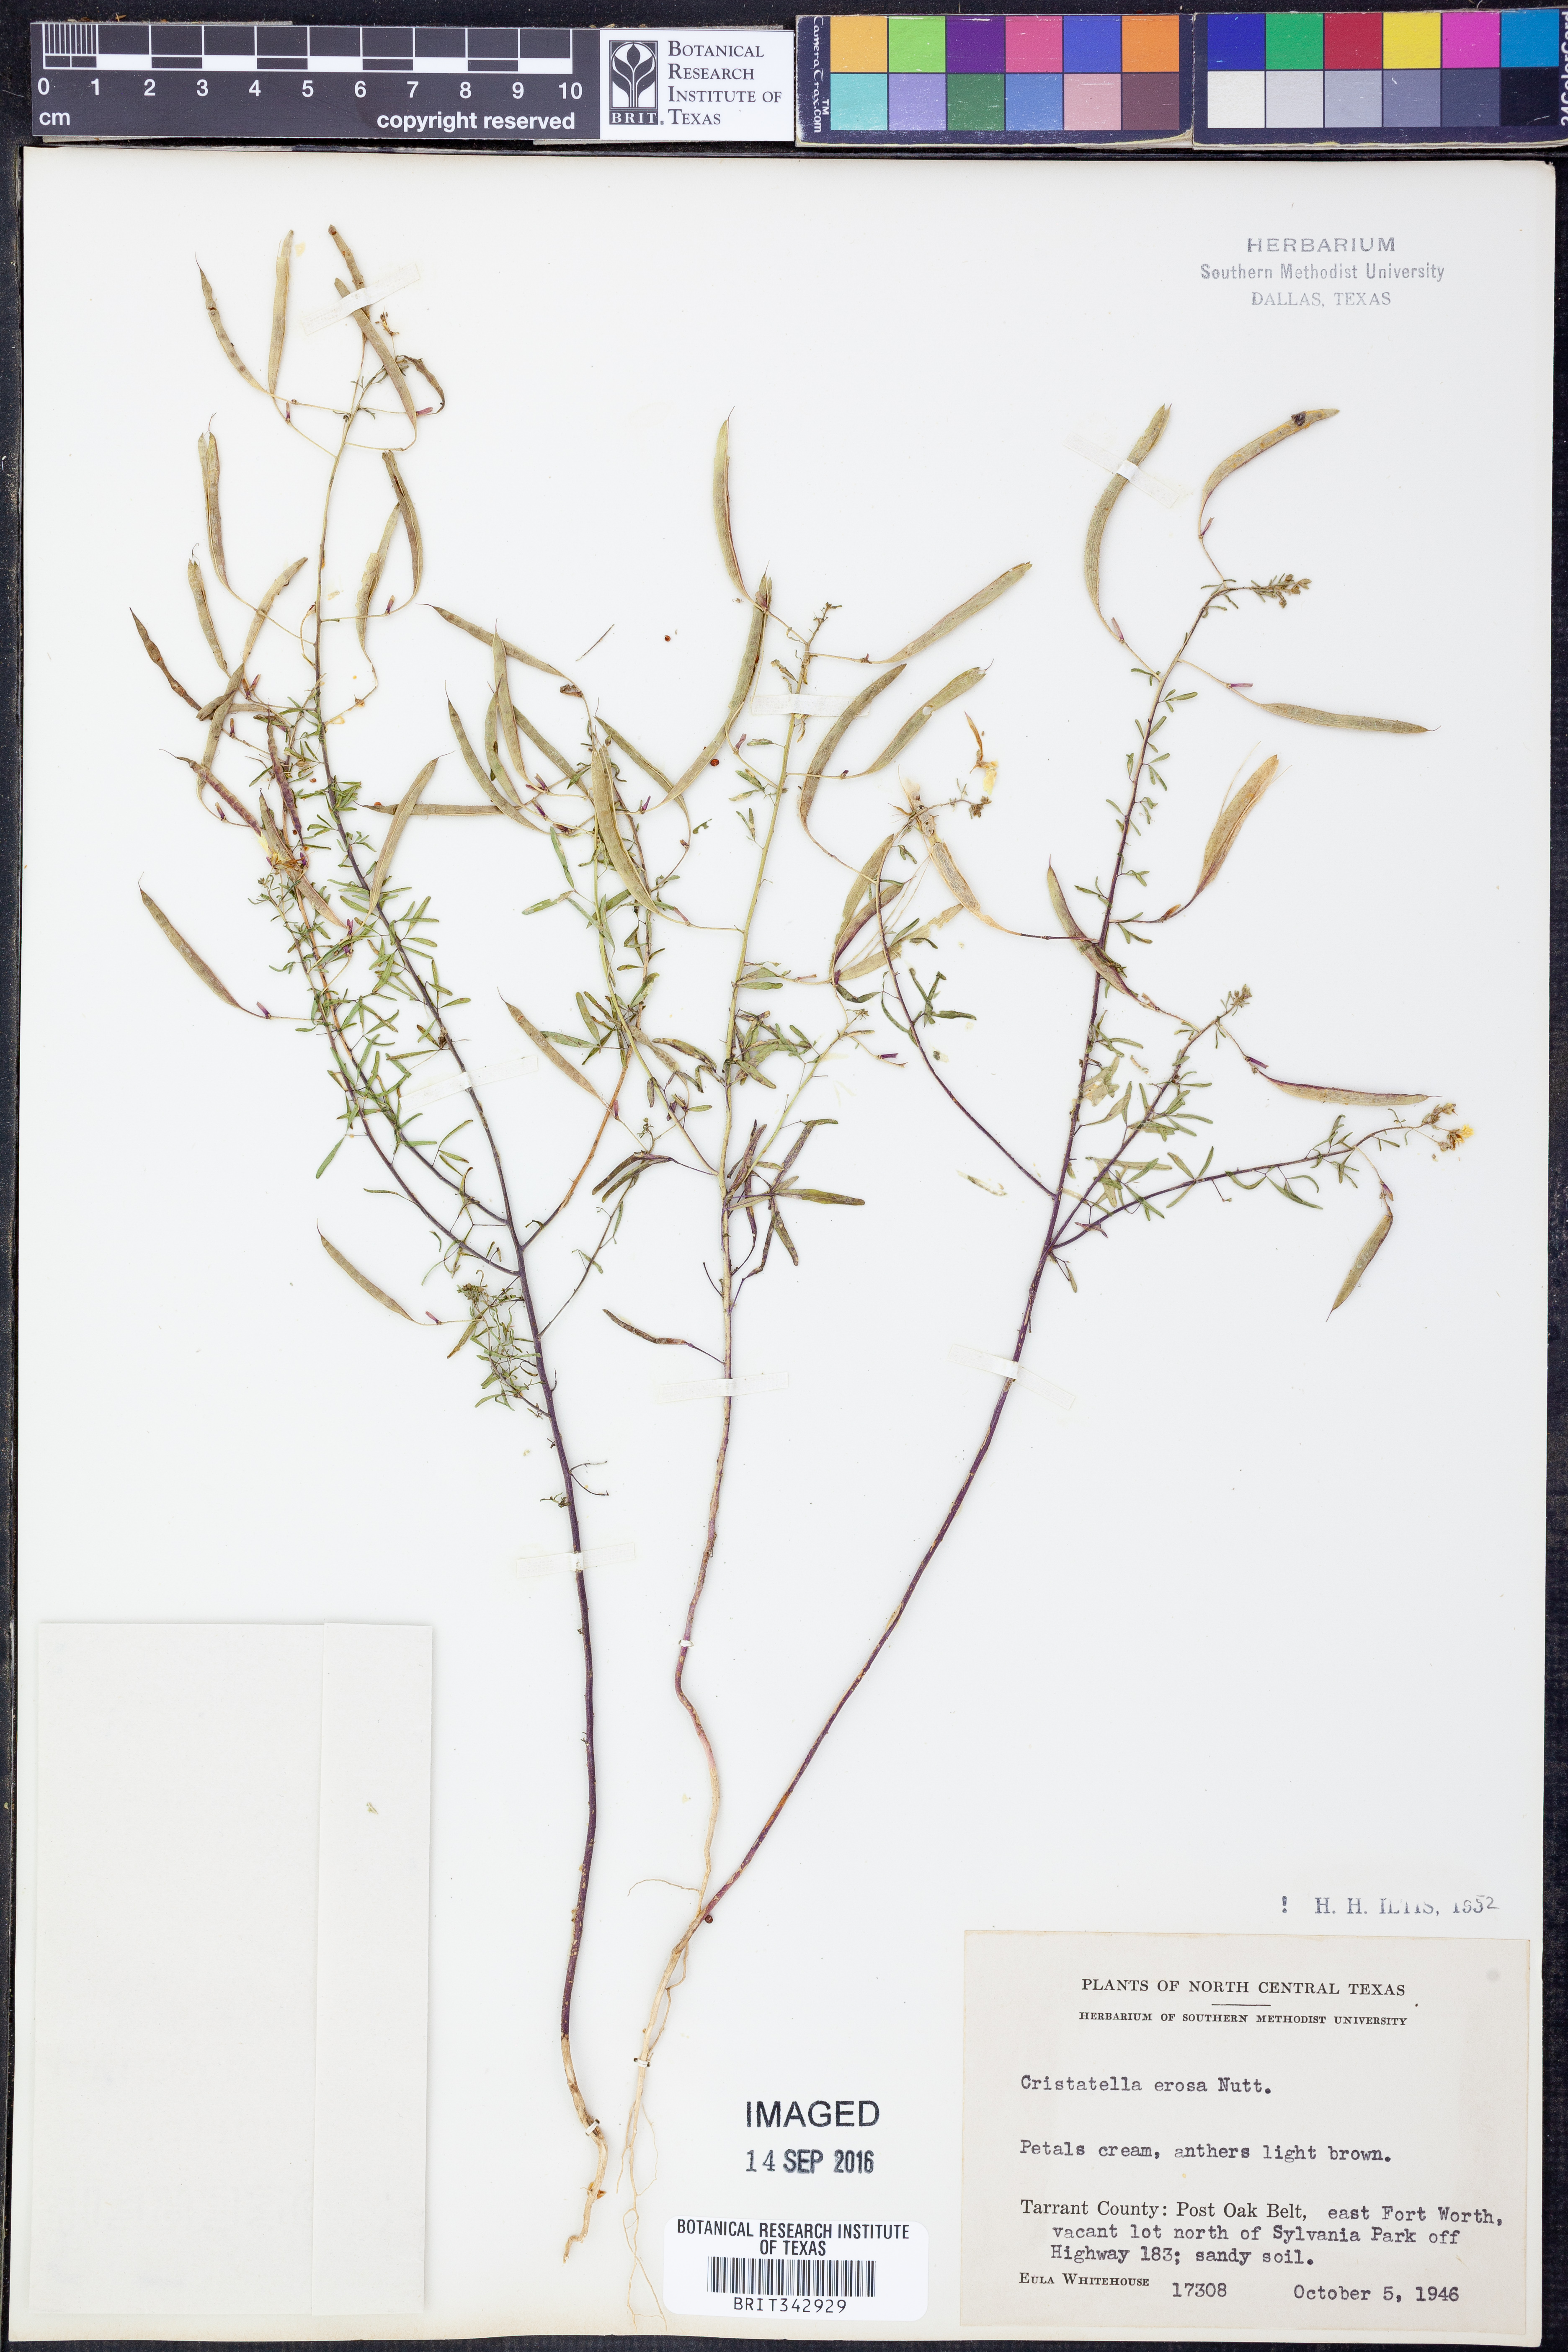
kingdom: Plantae
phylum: Tracheophyta
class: Magnoliopsida
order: Brassicales
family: Cleomaceae
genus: Polanisia
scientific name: Polanisia erosa
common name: Large clammyweed
